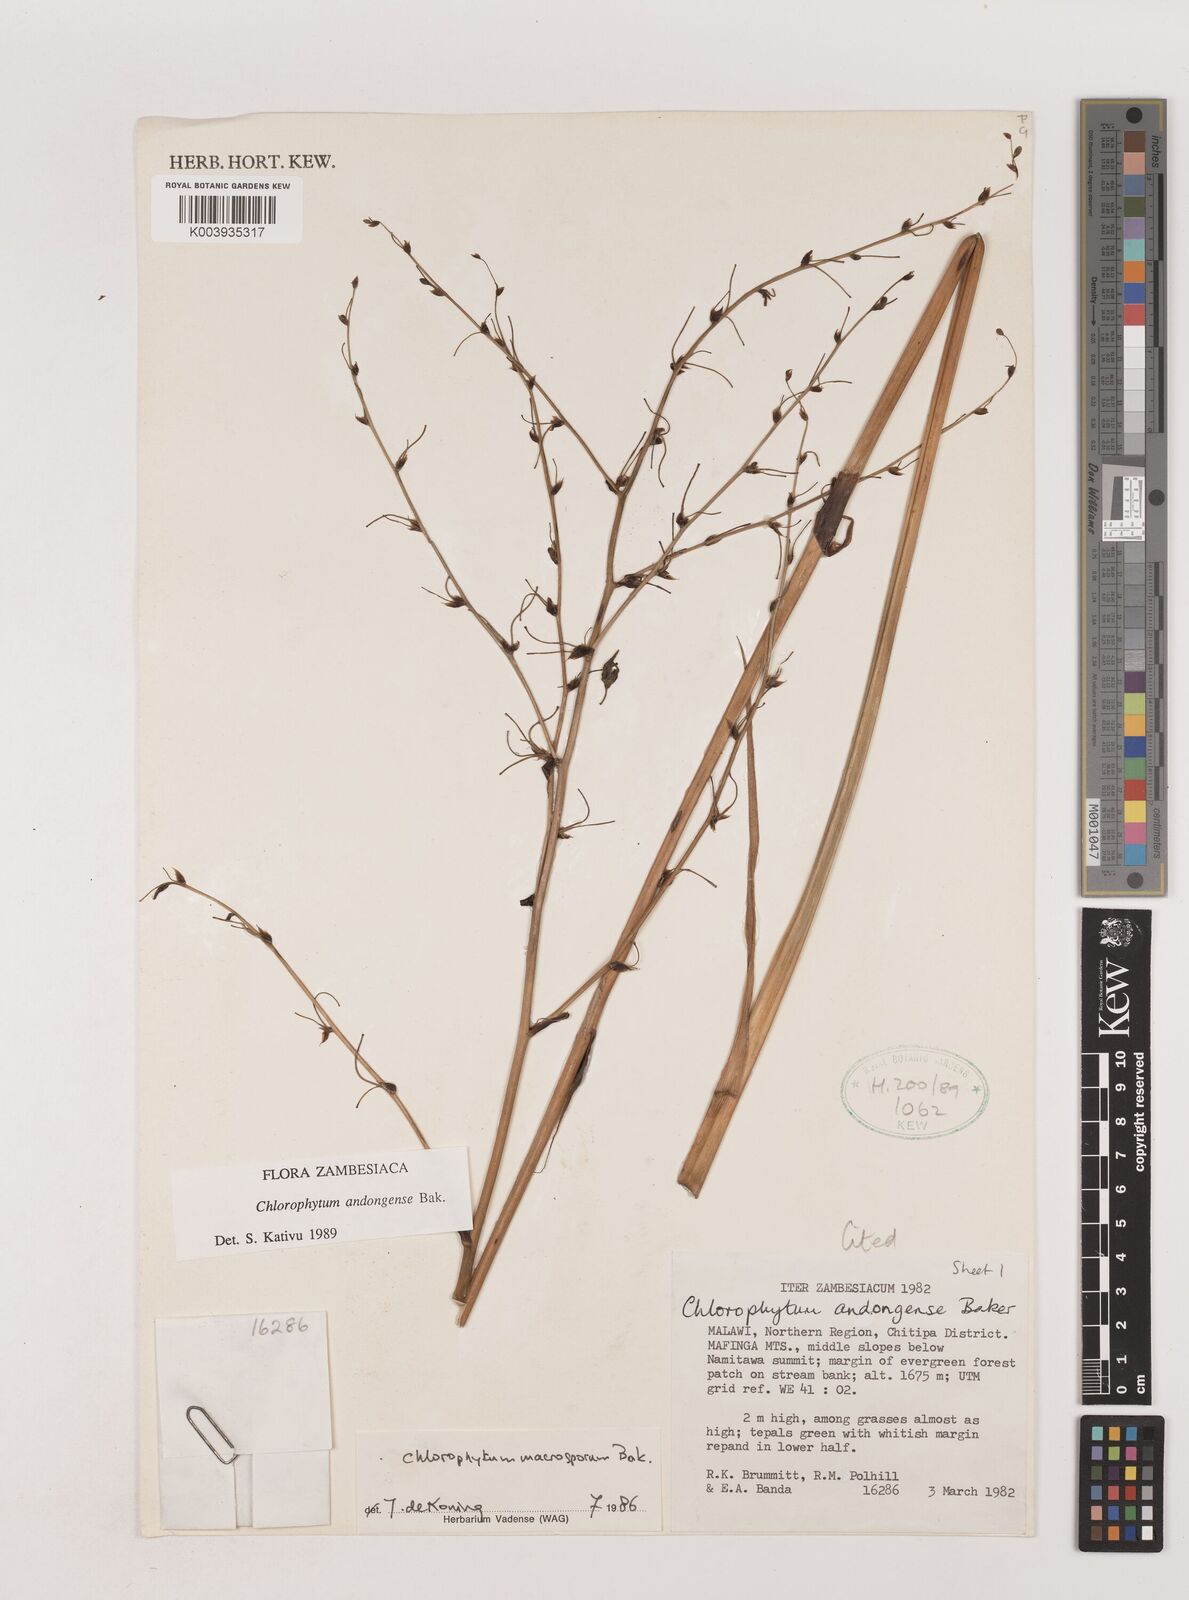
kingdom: Plantae
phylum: Tracheophyta
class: Liliopsida
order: Asparagales
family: Asparagaceae
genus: Chlorophytum
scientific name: Chlorophytum andongense
